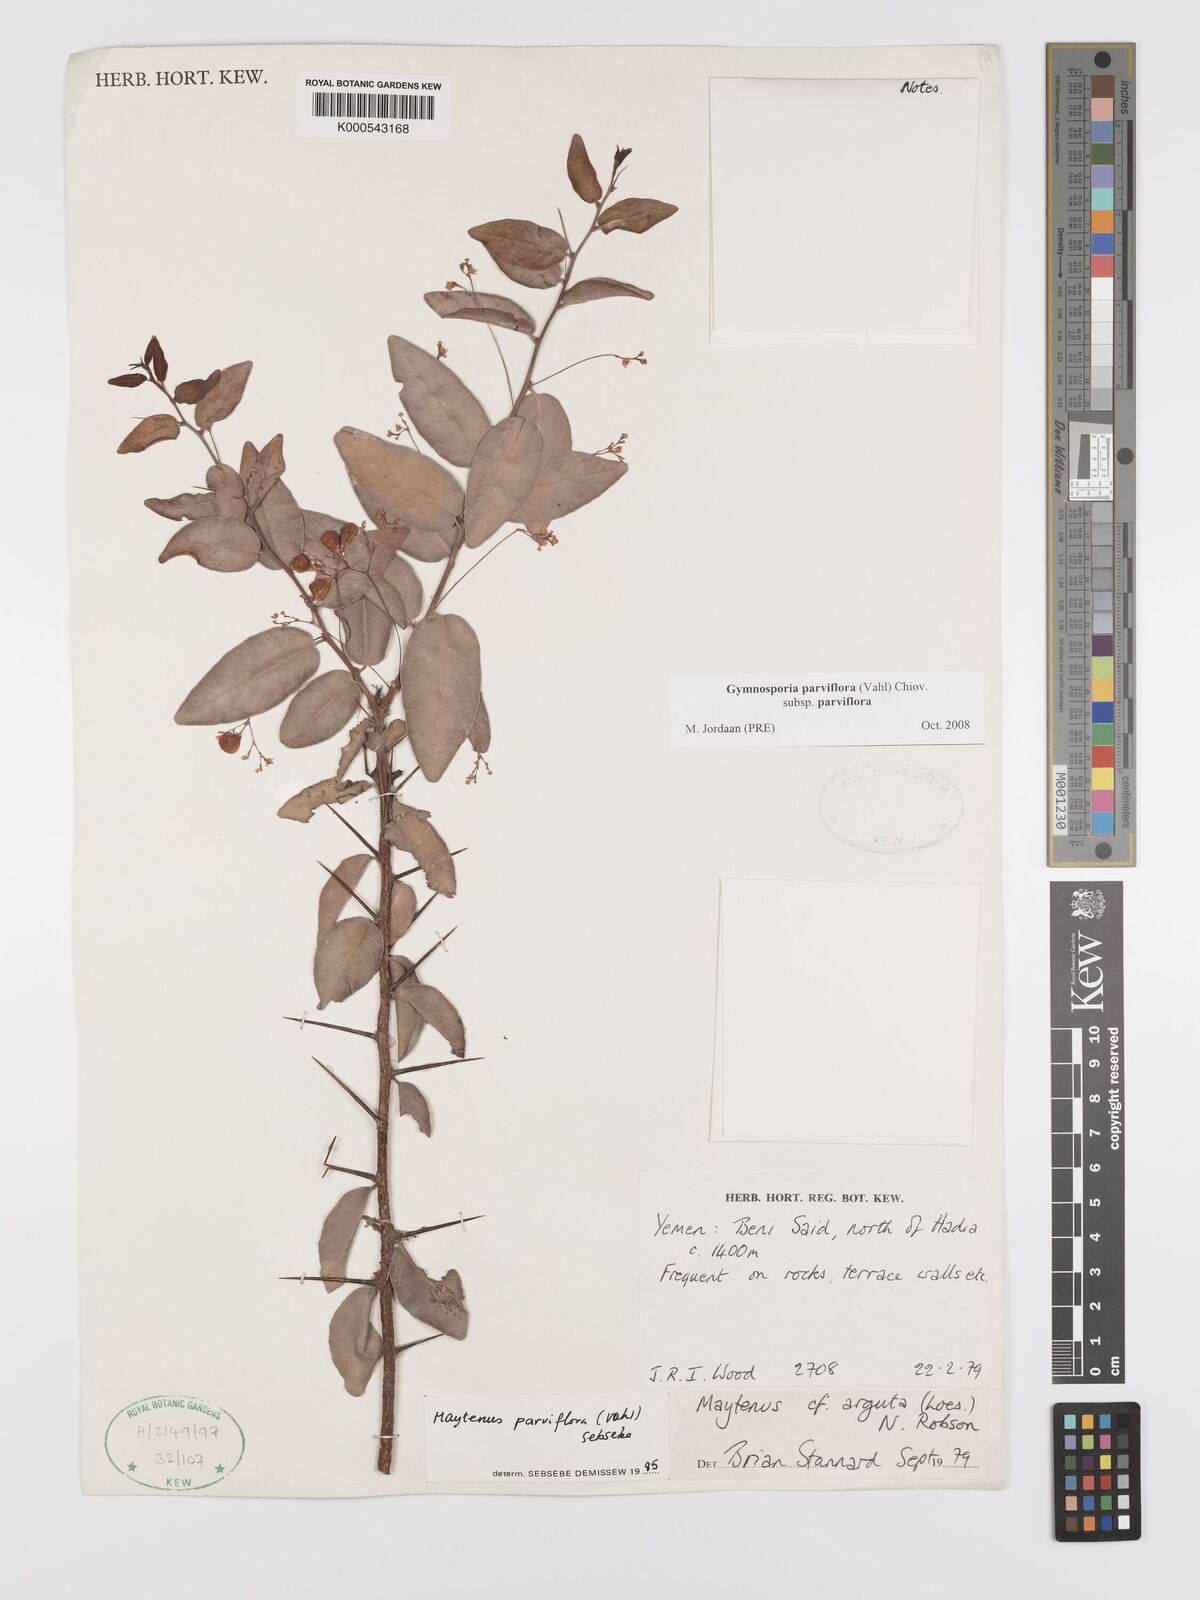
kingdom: Plantae
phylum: Tracheophyta
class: Magnoliopsida
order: Celastrales
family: Celastraceae
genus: Gymnosporia
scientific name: Gymnosporia parviflora
